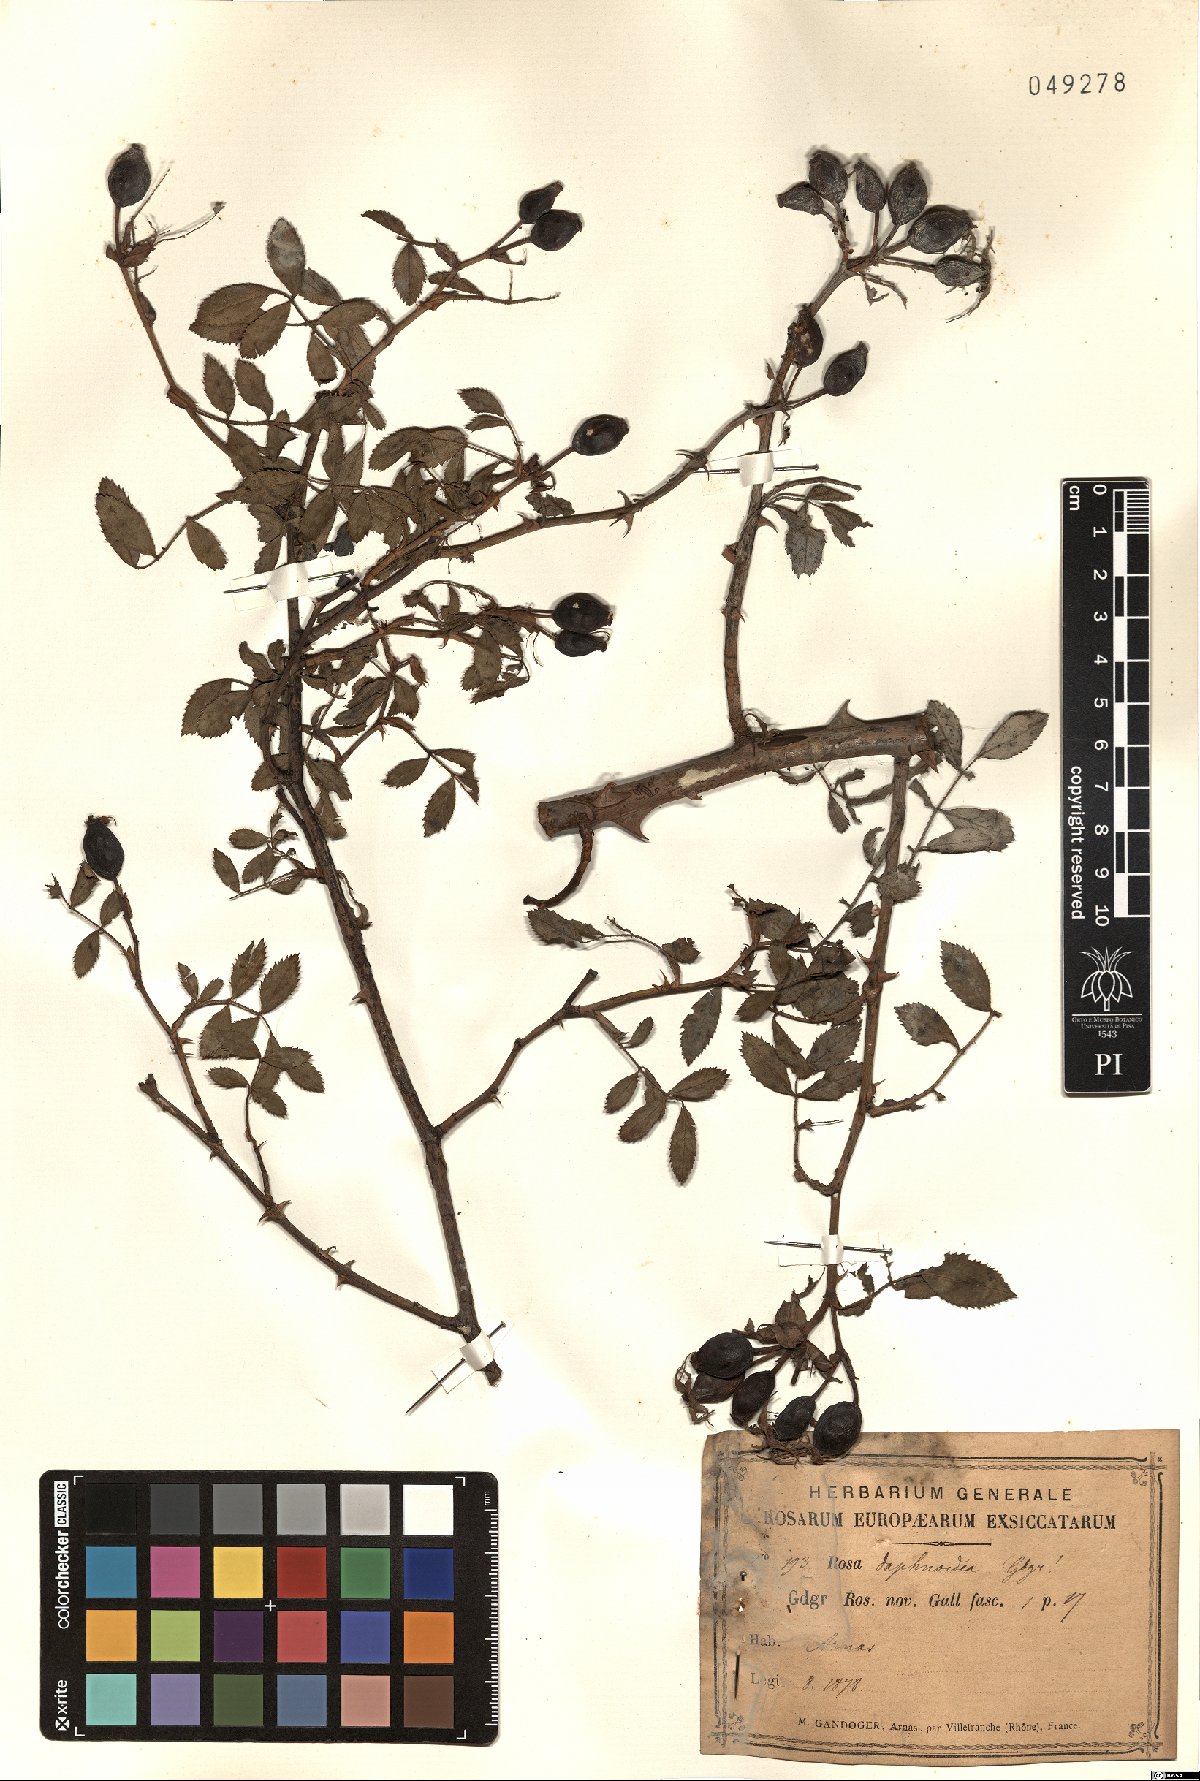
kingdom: Plantae
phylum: Tracheophyta
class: Magnoliopsida
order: Rosales
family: Rosaceae
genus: Rosa
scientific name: Rosa daphnoides
